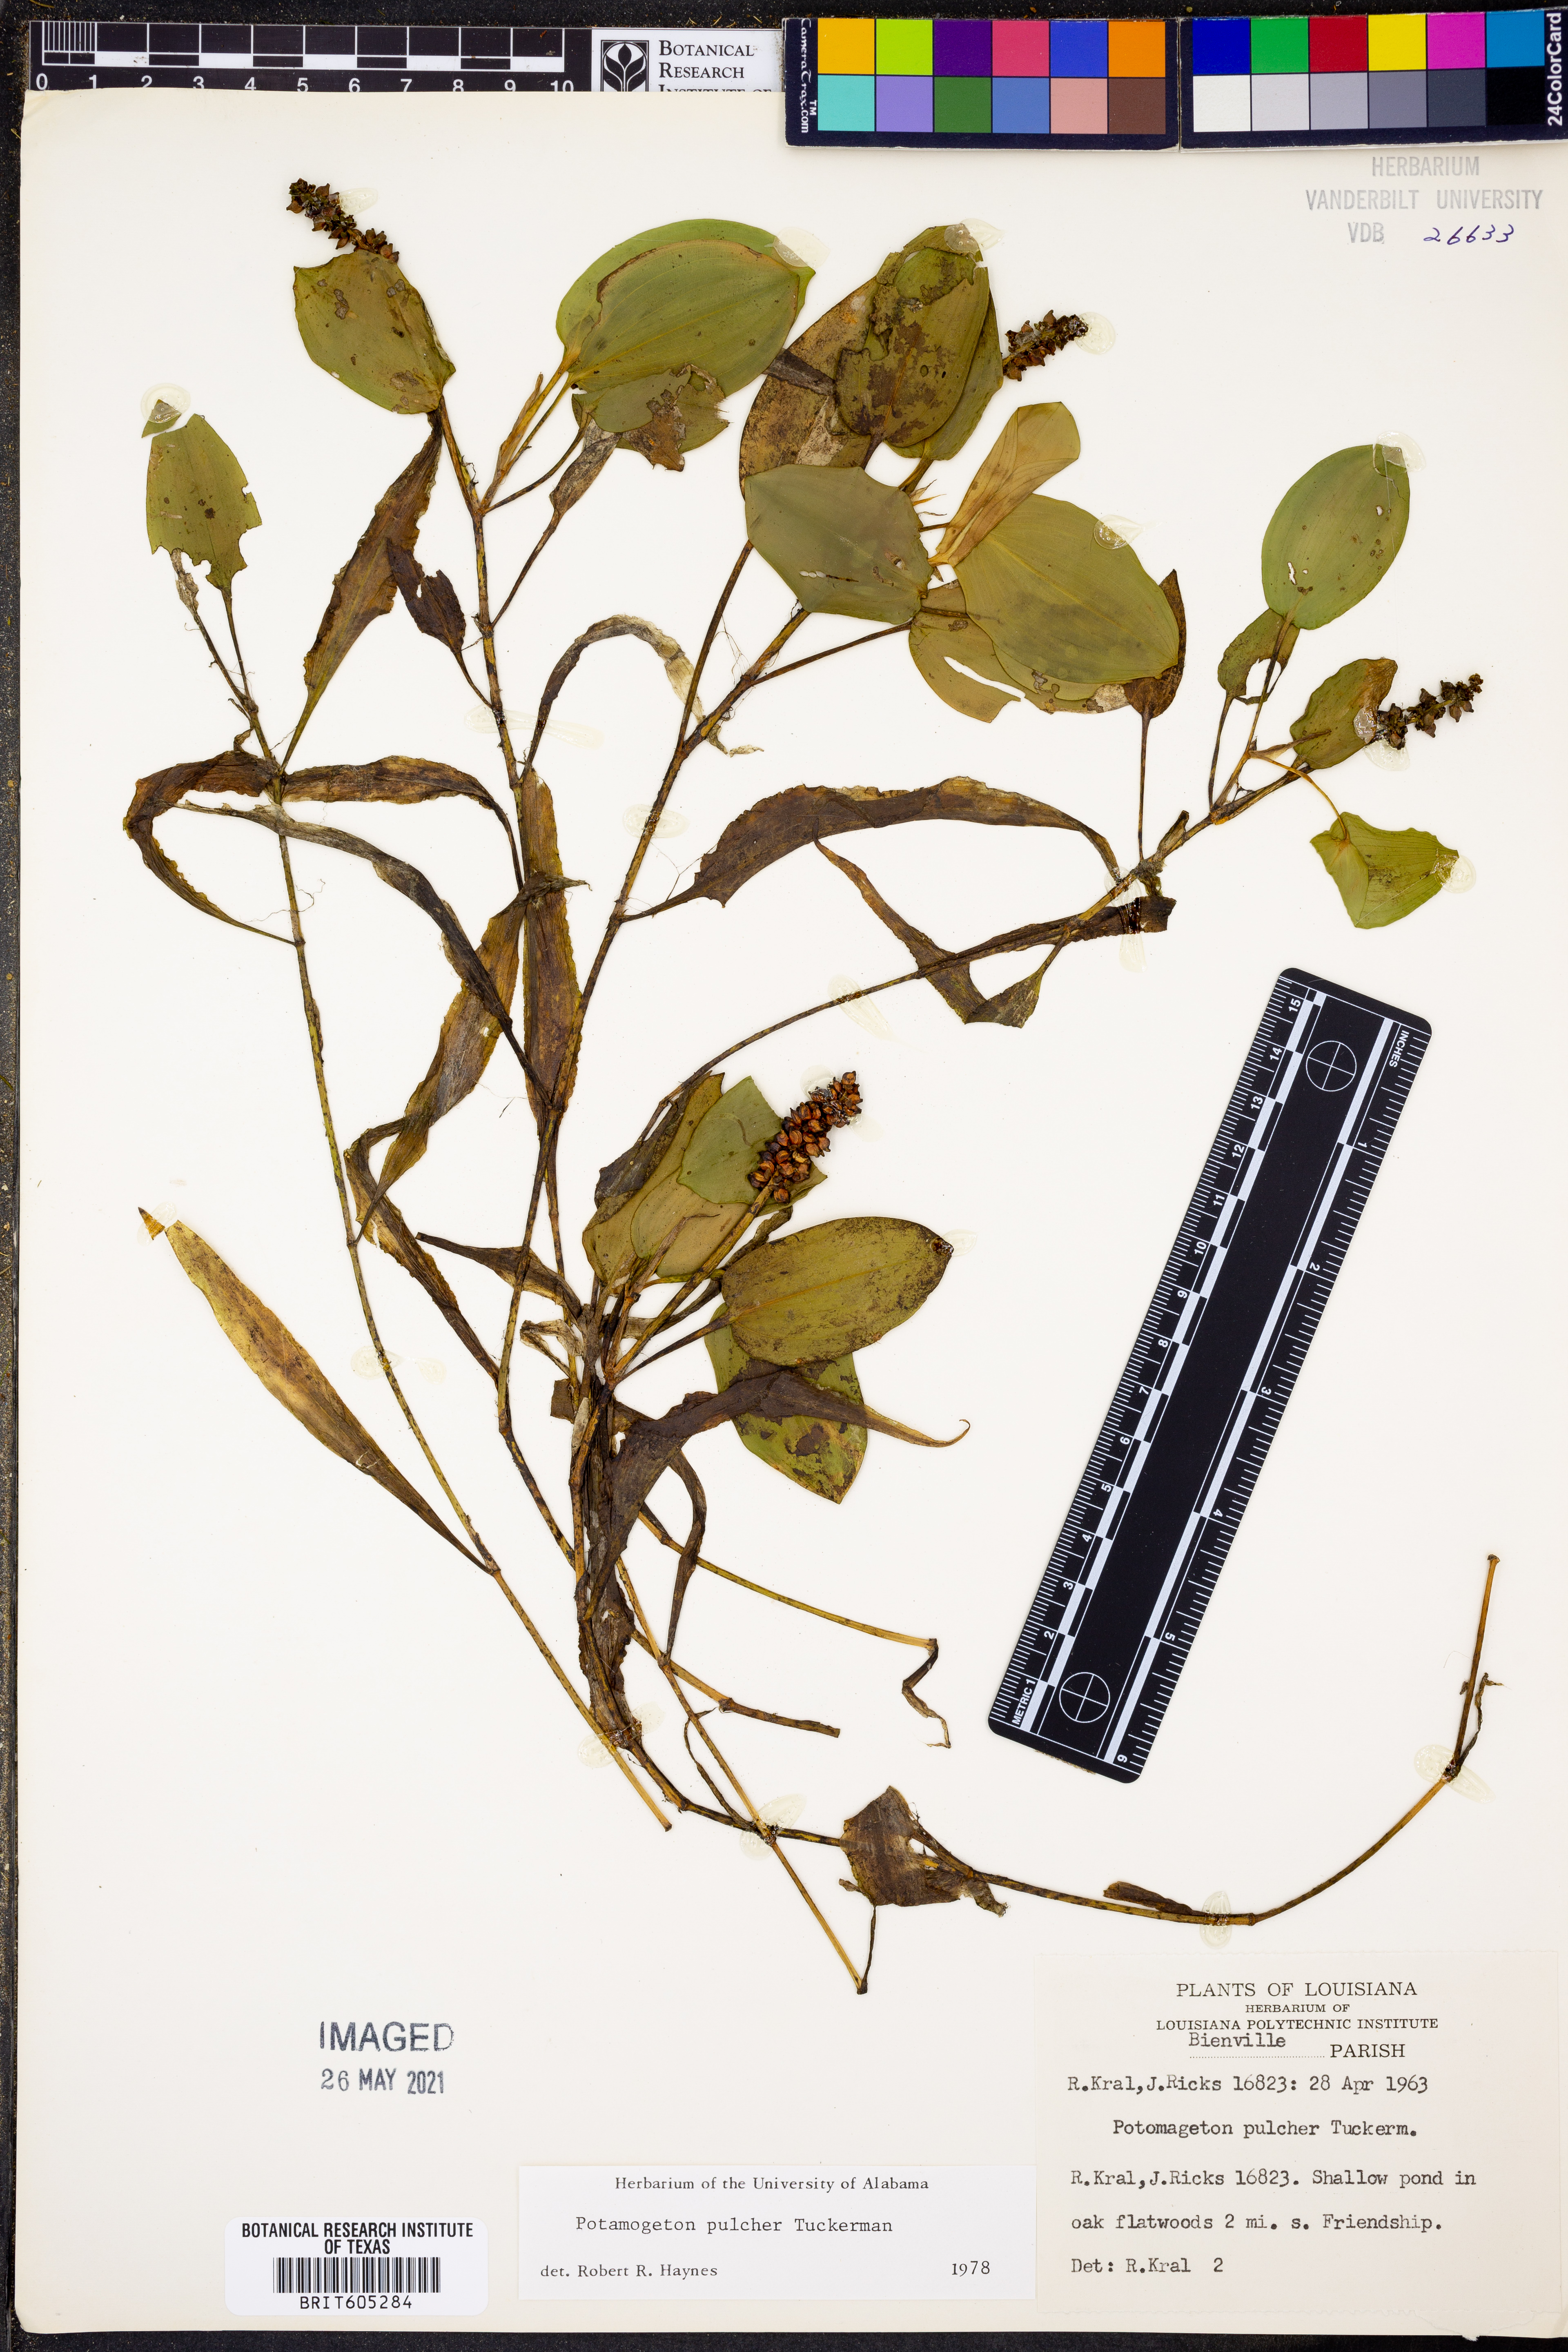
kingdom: Plantae
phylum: Tracheophyta
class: Liliopsida
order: Alismatales
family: Potamogetonaceae
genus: Potamogeton
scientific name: Potamogeton pulcher
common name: Heart-leaved pondweed
